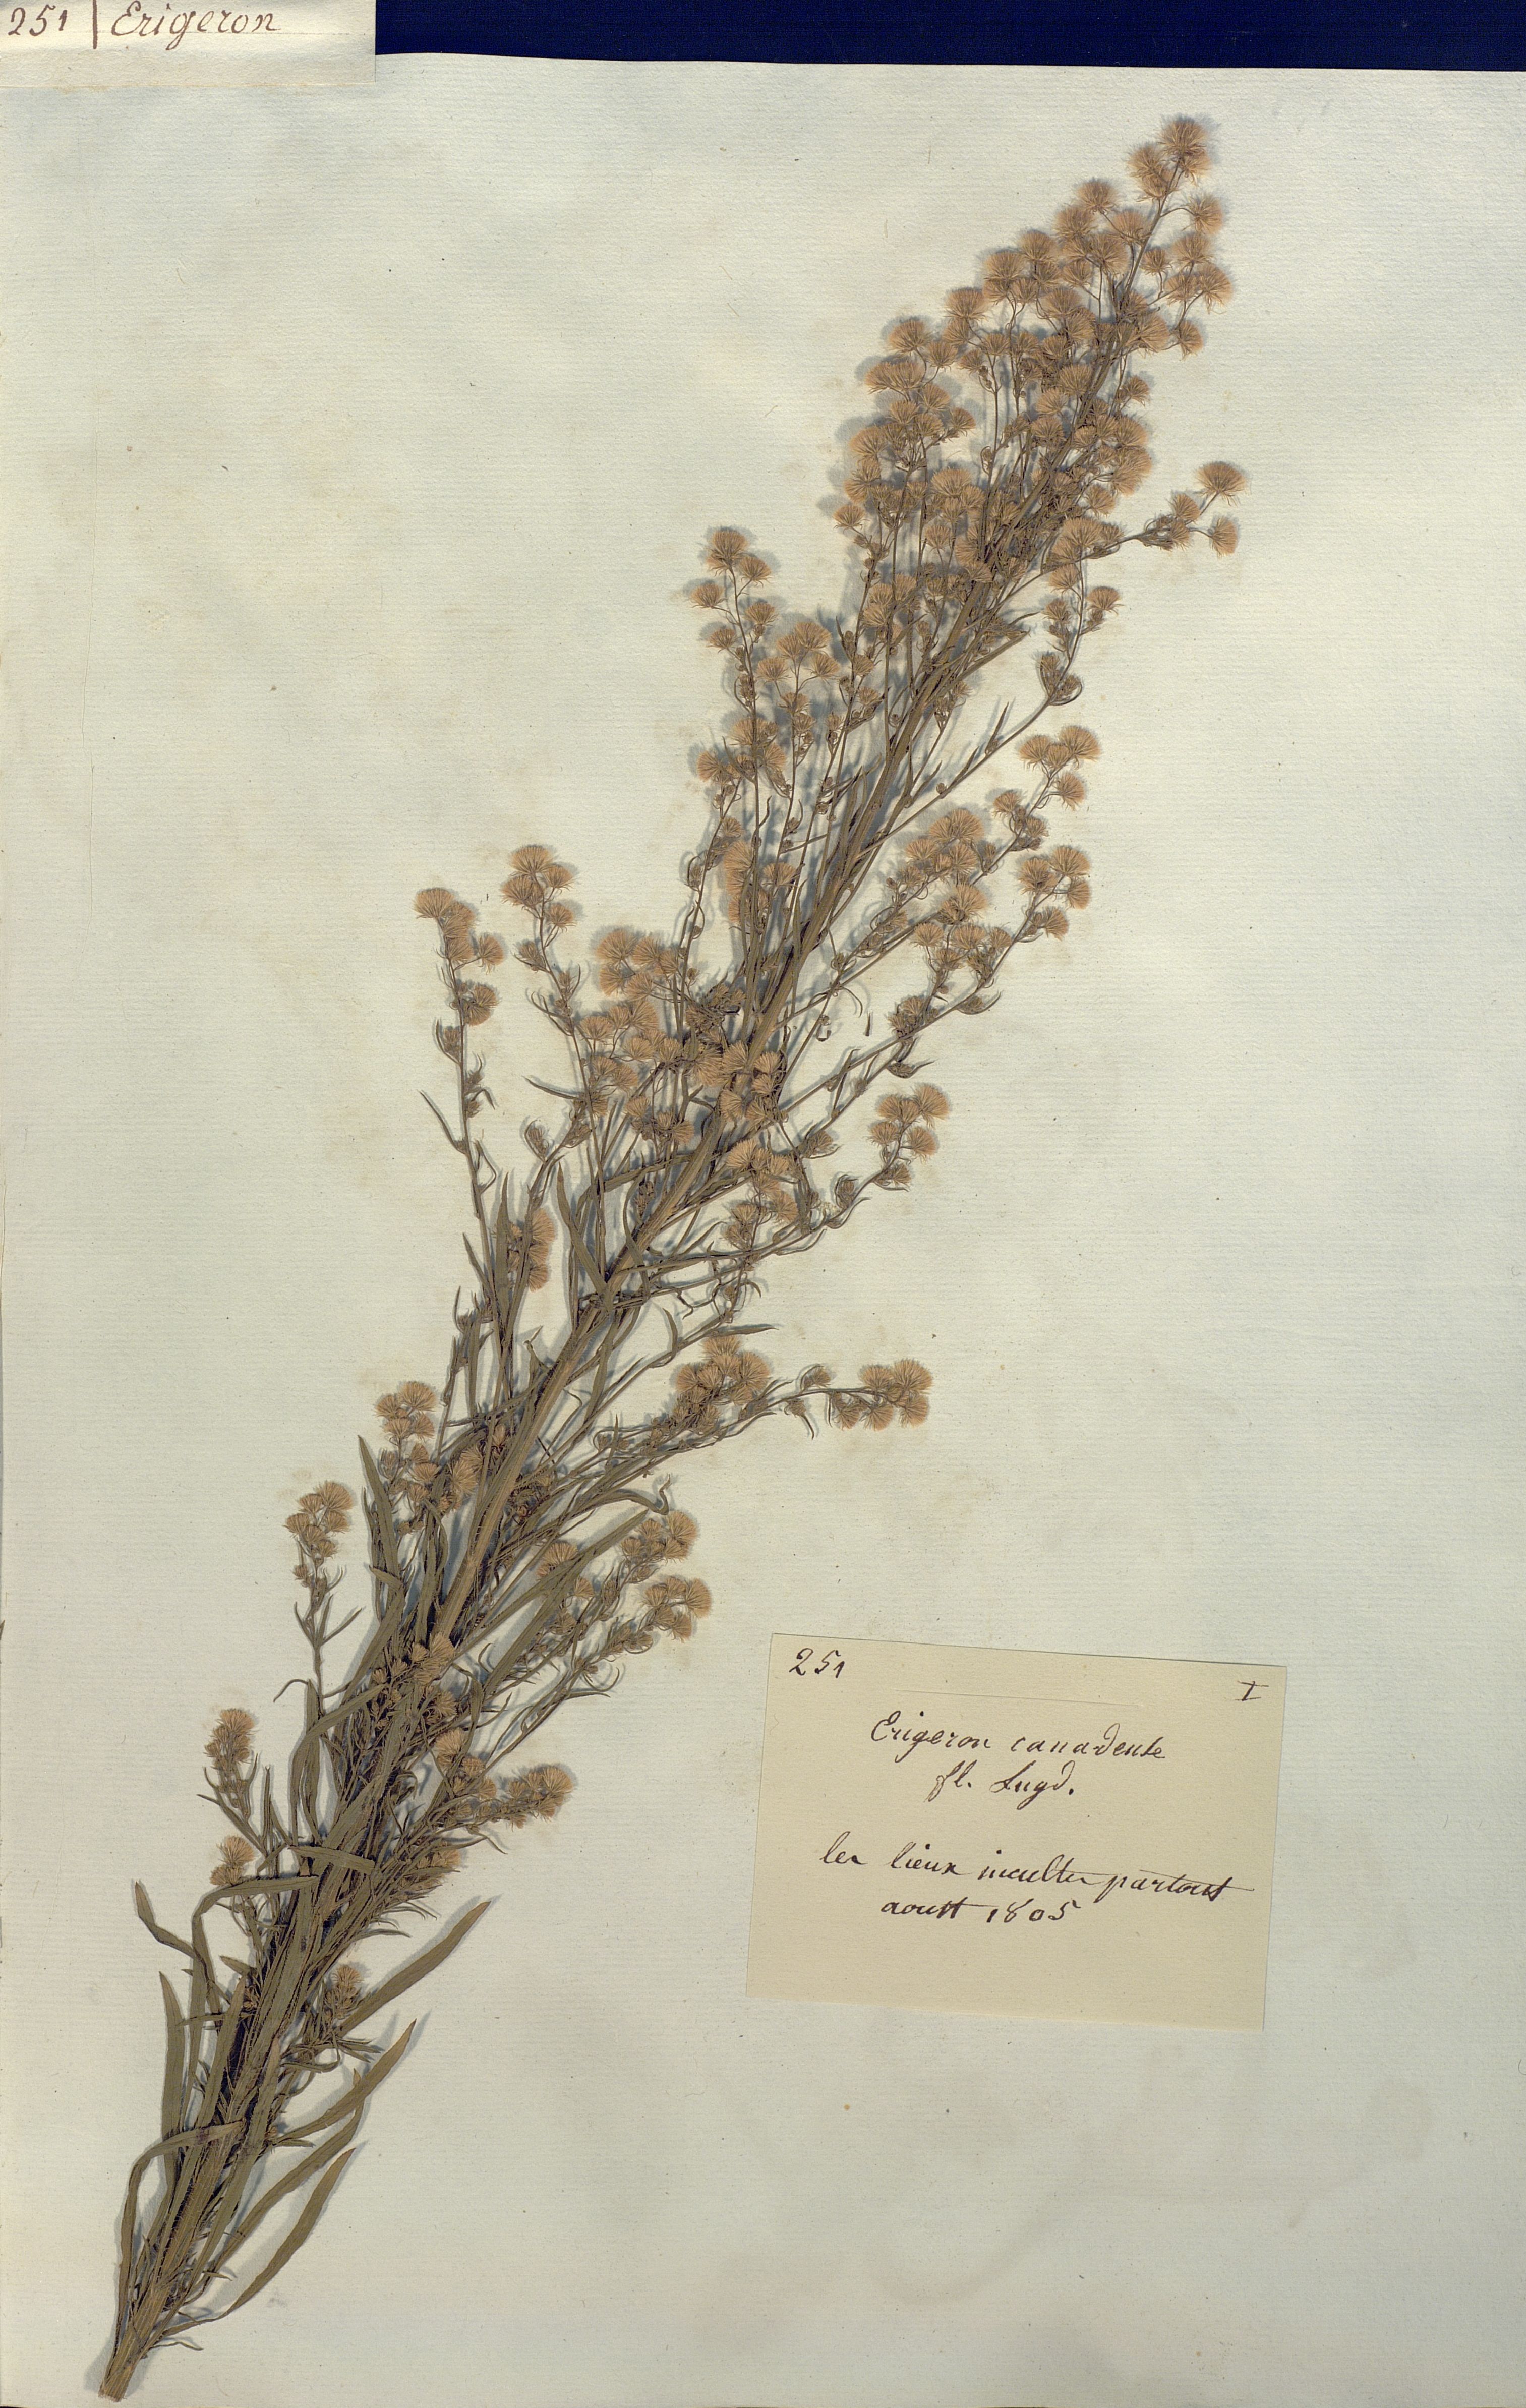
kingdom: Plantae
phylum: Tracheophyta
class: Magnoliopsida
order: Asterales
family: Asteraceae
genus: Erigeron
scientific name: Erigeron canadensis
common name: Canadian fleabane
